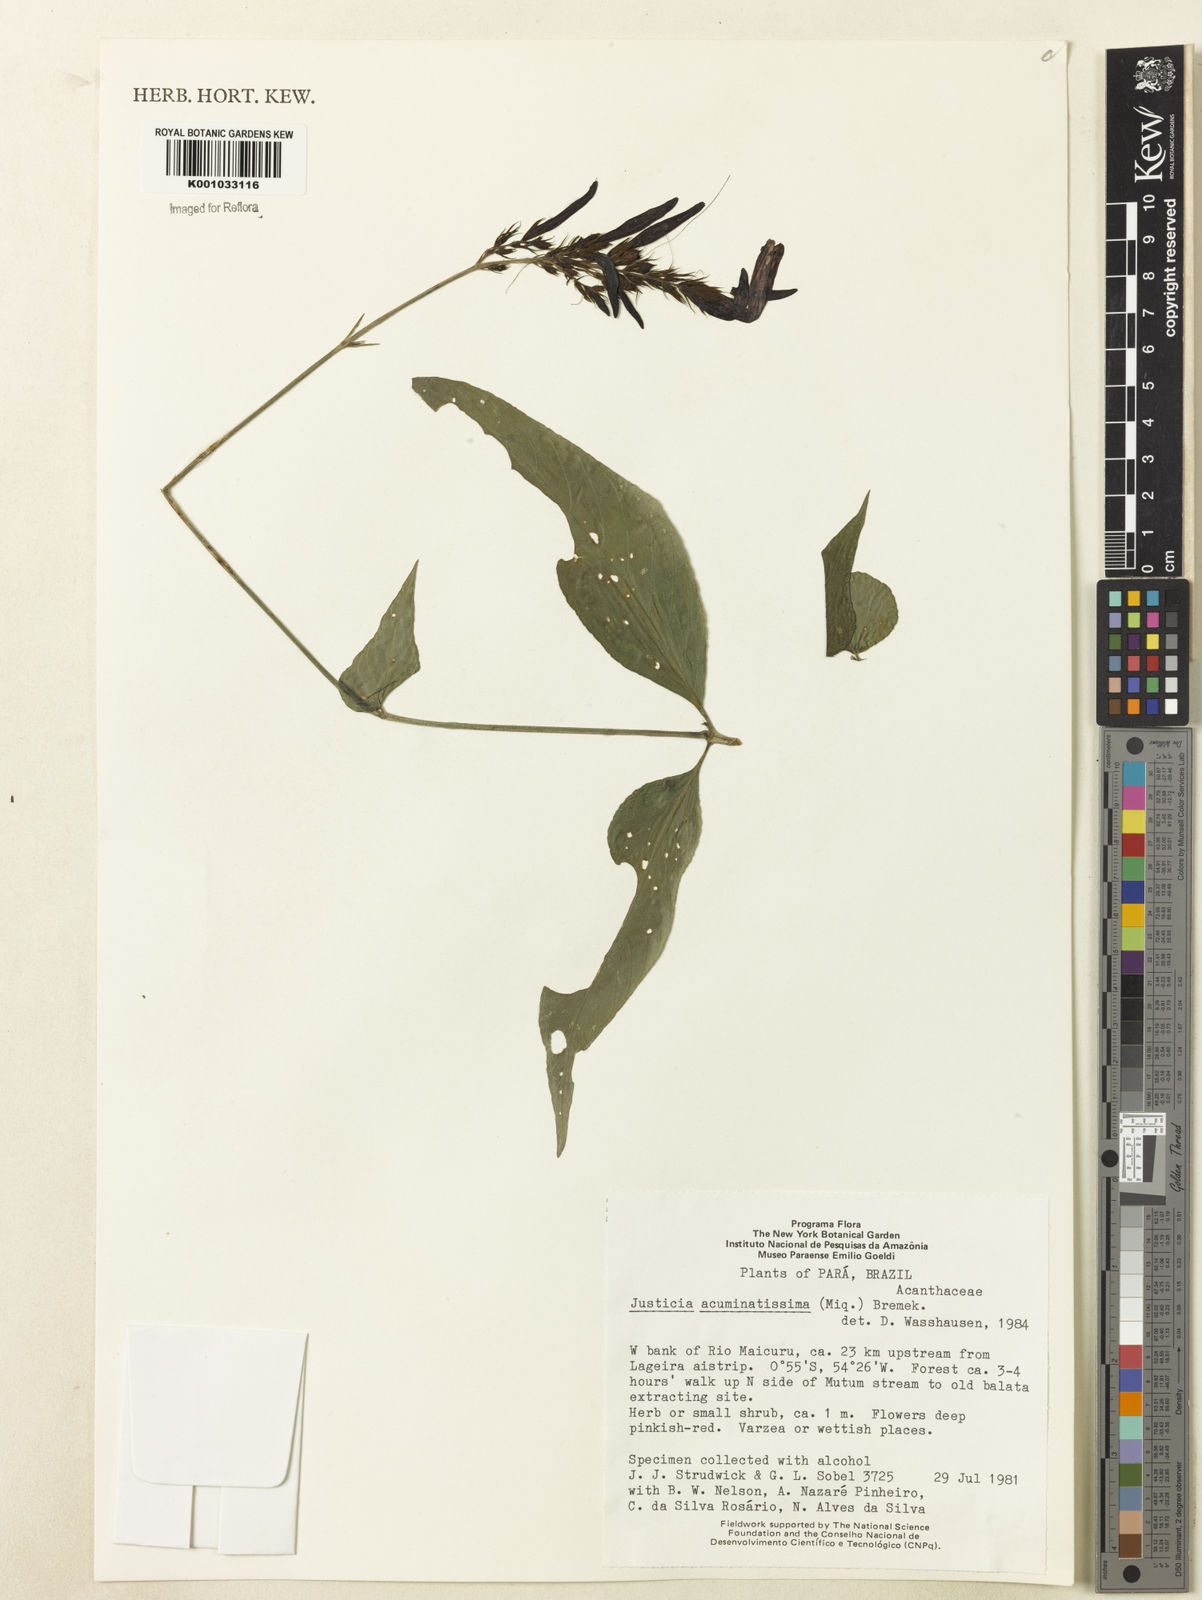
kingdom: Plantae
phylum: Tracheophyta
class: Magnoliopsida
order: Lamiales
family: Acanthaceae
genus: Dianthera
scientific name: Dianthera calycina
